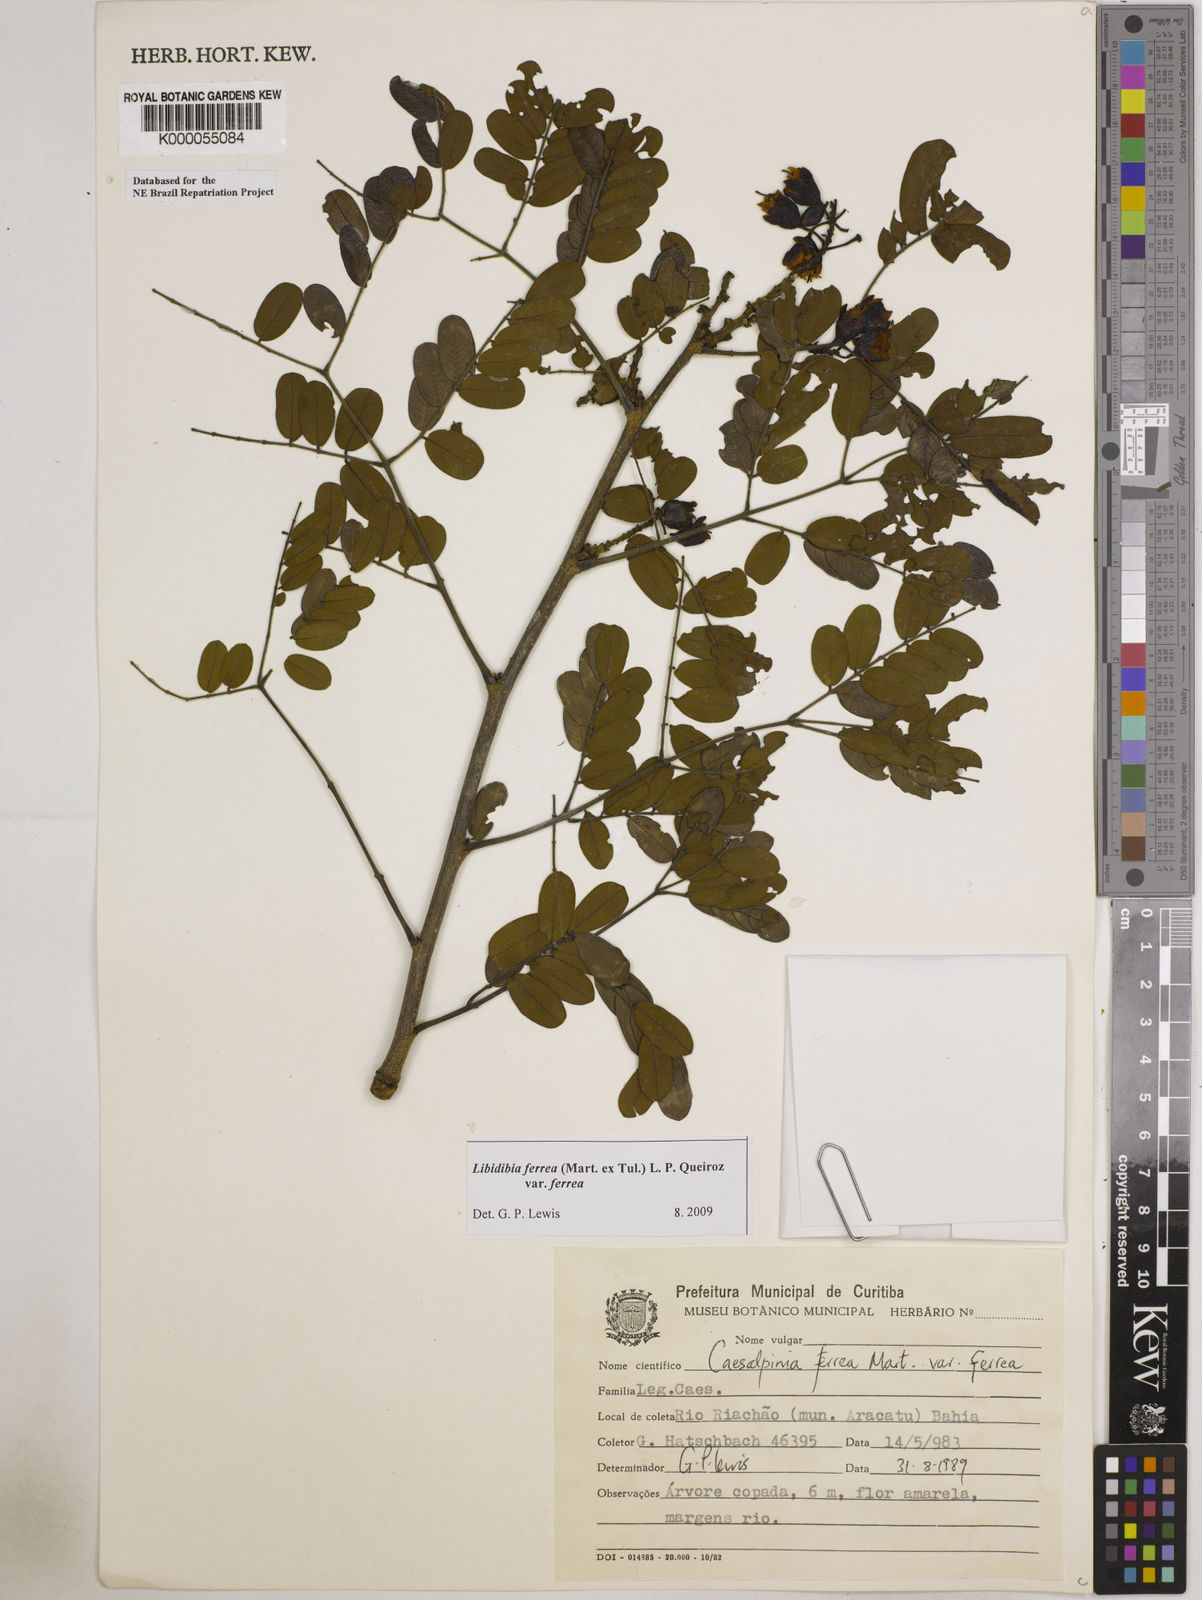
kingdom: Plantae
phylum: Tracheophyta
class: Magnoliopsida
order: Fabales
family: Fabaceae
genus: Libidibia
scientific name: Libidibia ferrea
